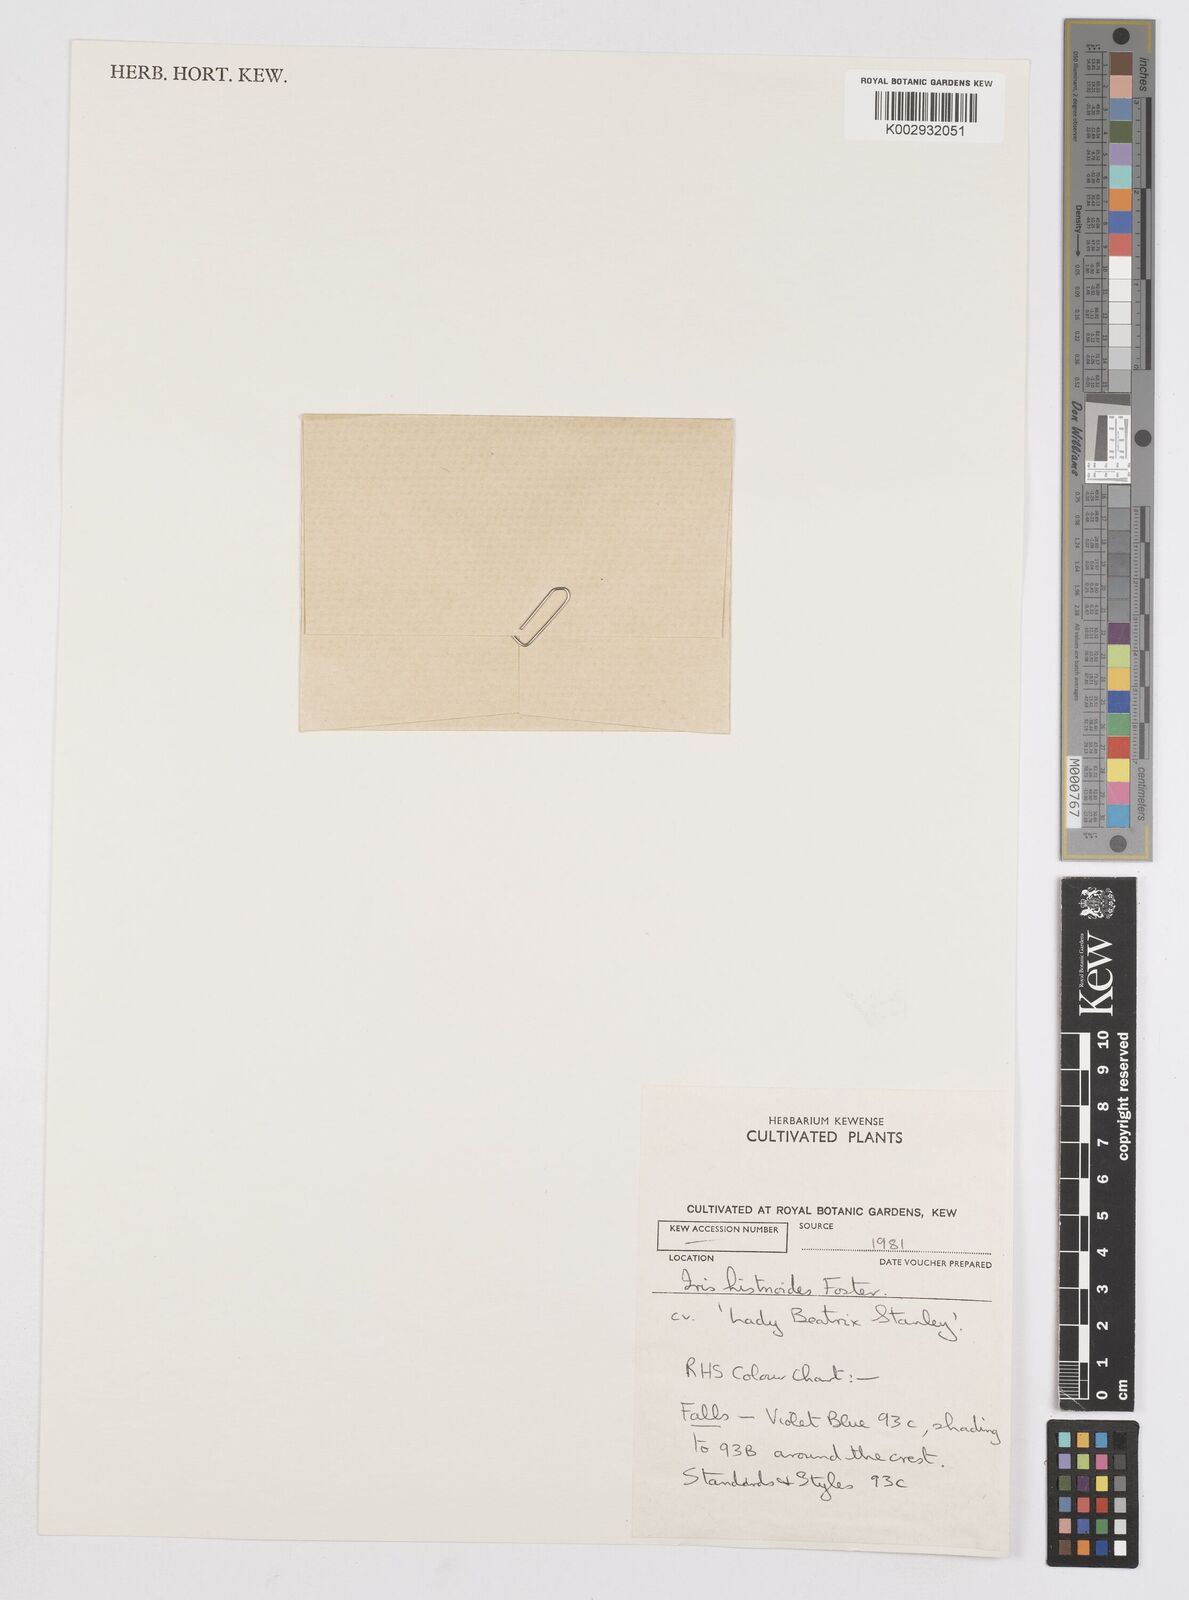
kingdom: Plantae
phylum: Tracheophyta
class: Liliopsida
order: Asparagales
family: Iridaceae
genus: Iris
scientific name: Iris
